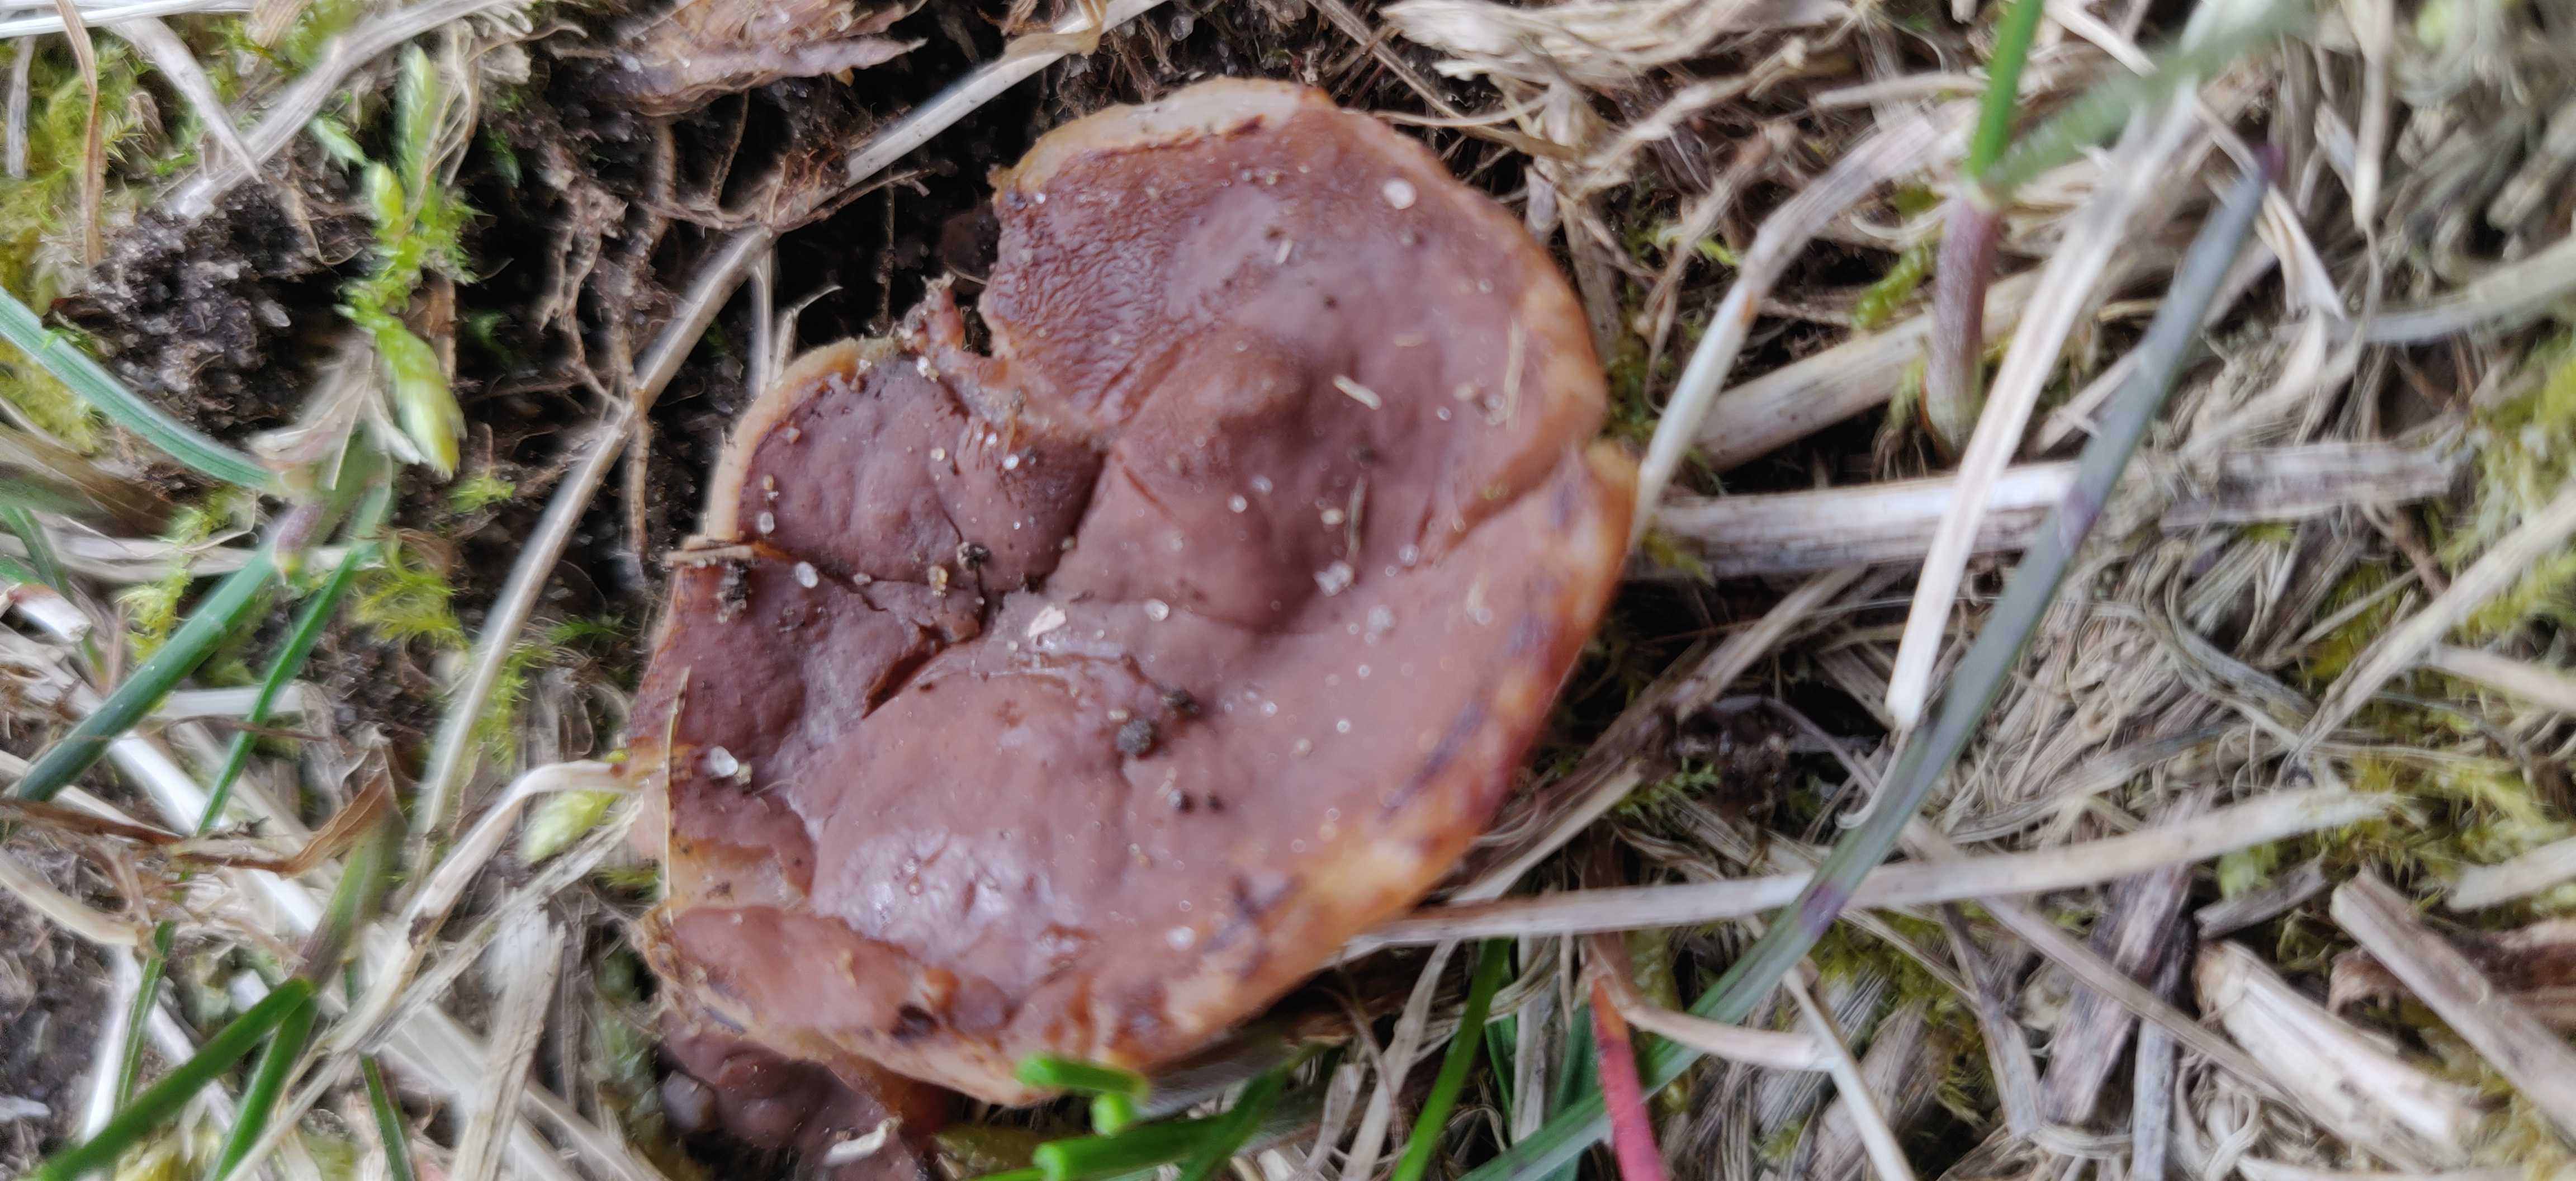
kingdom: Fungi
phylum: Ascomycota
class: Pezizomycetes
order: Pezizales
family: Discinaceae
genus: Discina
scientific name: Discina ancilis
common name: udbredt stenmorkel
